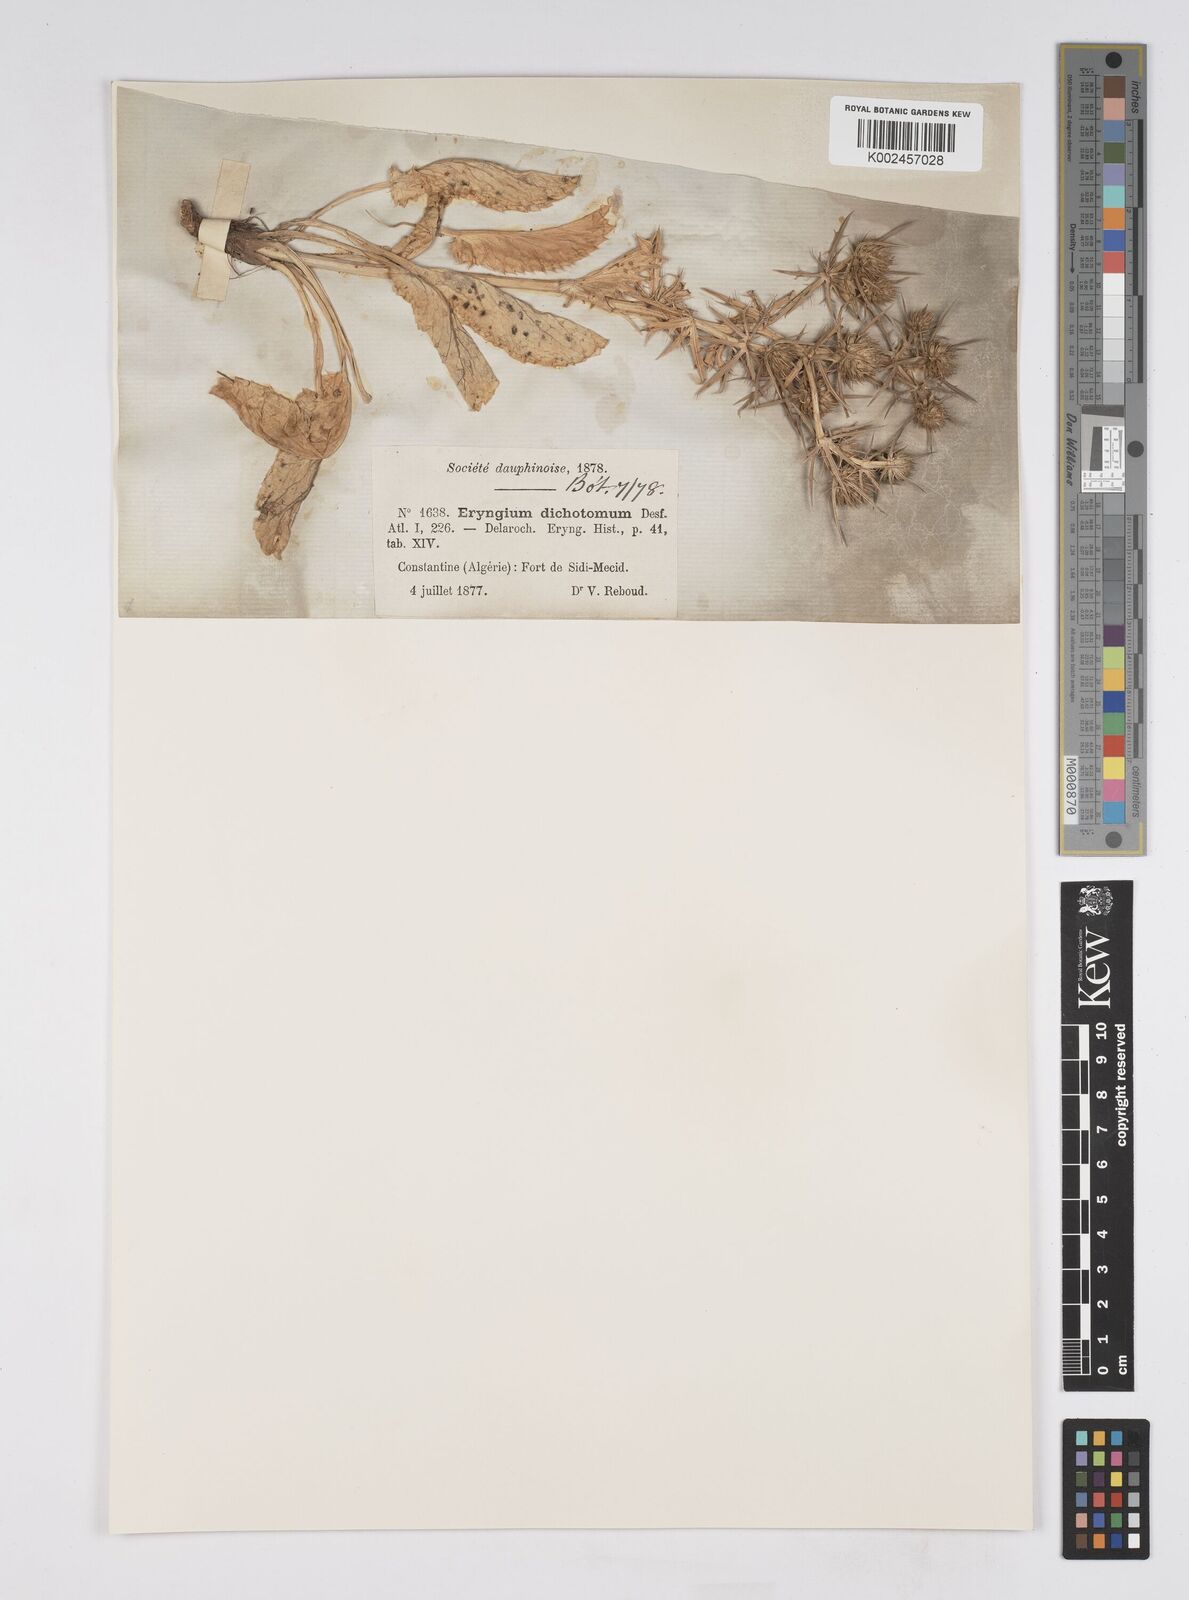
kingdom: Plantae
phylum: Tracheophyta
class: Magnoliopsida
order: Apiales
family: Apiaceae
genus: Eryngium
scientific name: Eryngium dichotomum
